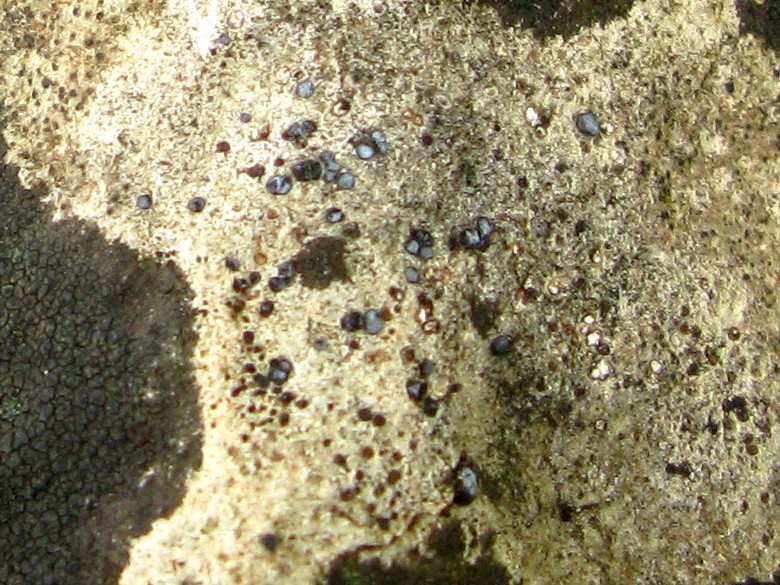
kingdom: Fungi
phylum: Ascomycota
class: Lecanoromycetes
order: Acarosporales
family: Acarosporaceae
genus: Sarcogyne
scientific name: Sarcogyne regularis
